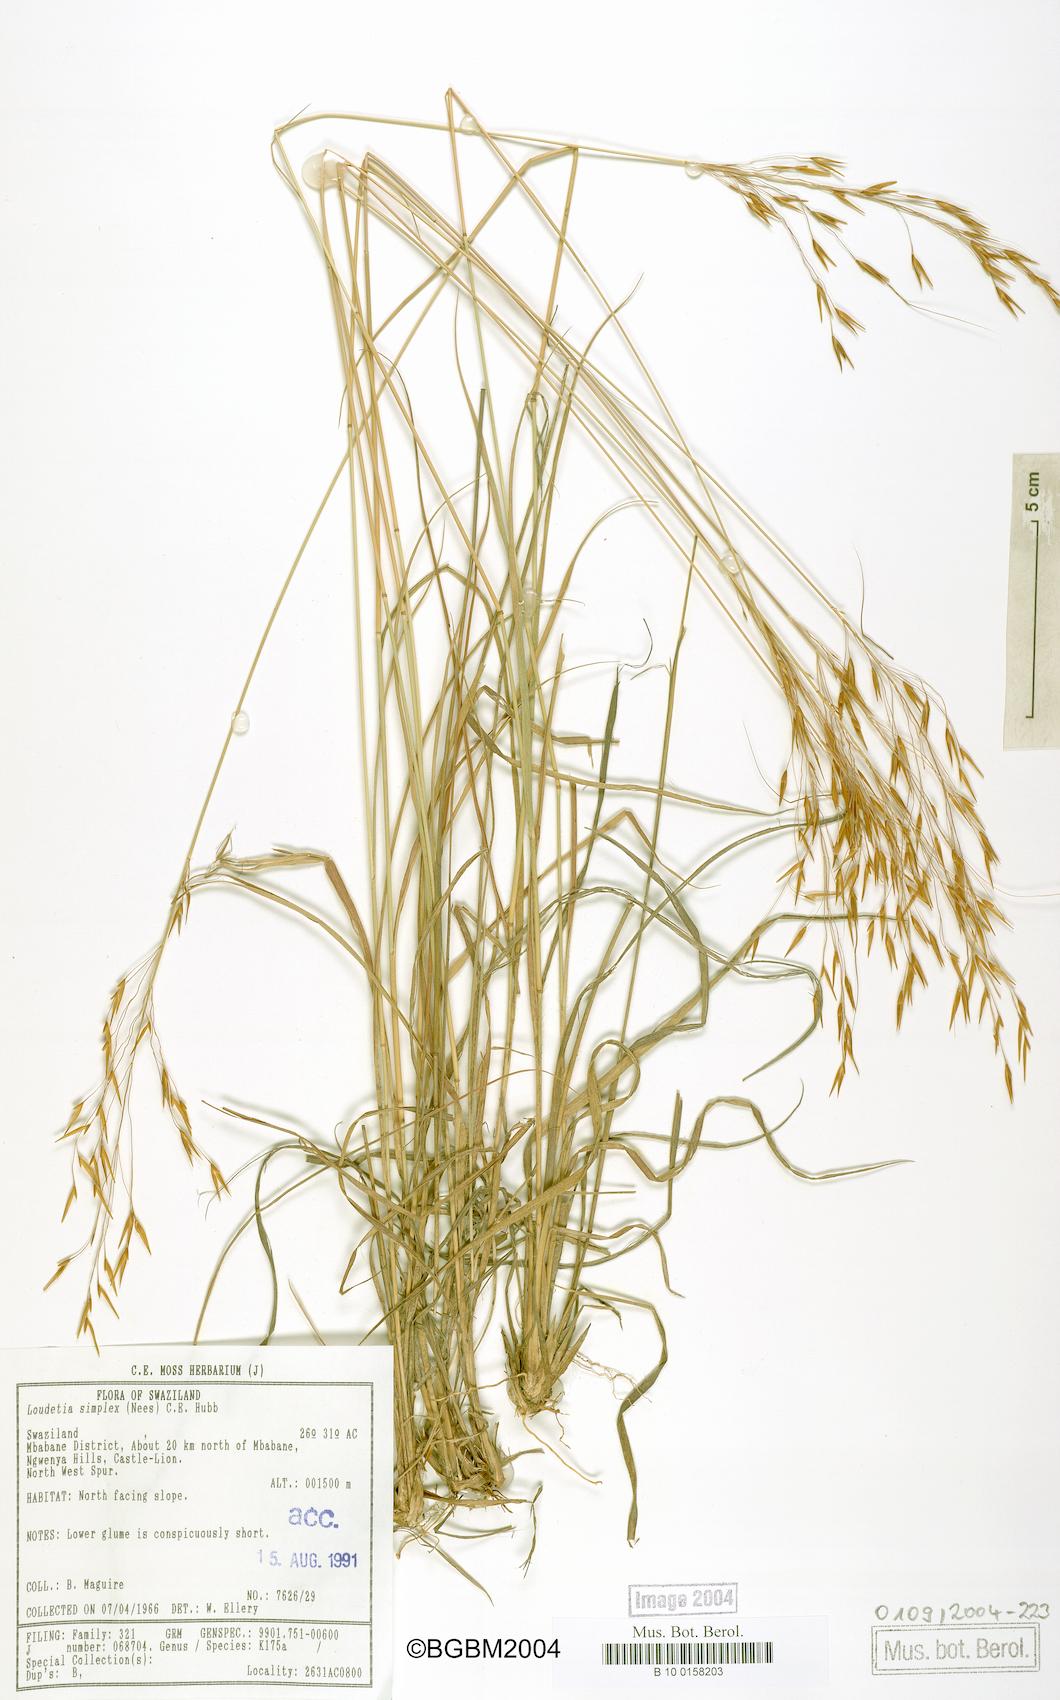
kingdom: Plantae
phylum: Tracheophyta
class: Liliopsida
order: Poales
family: Poaceae
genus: Loudetia
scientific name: Loudetia simplex
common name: Common russet grass
